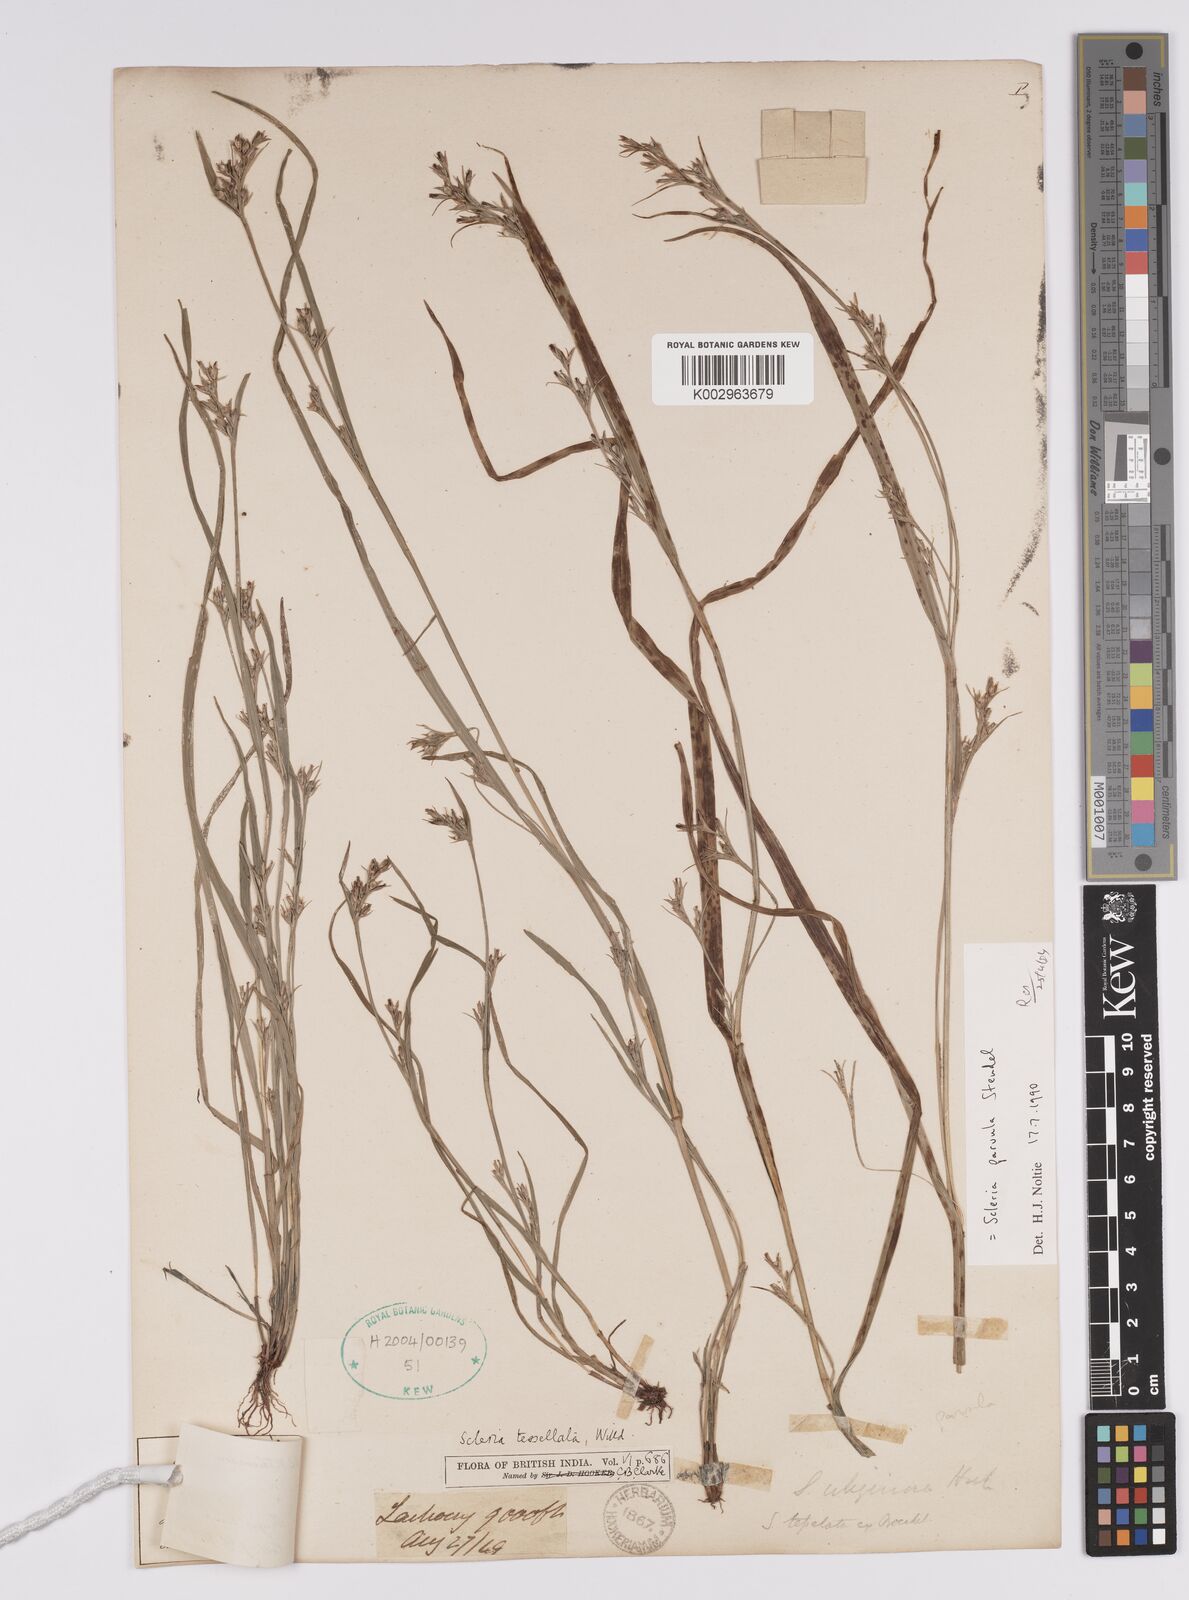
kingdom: Plantae
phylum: Tracheophyta
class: Liliopsida
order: Poales
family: Cyperaceae
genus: Scleria
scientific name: Scleria parvula
